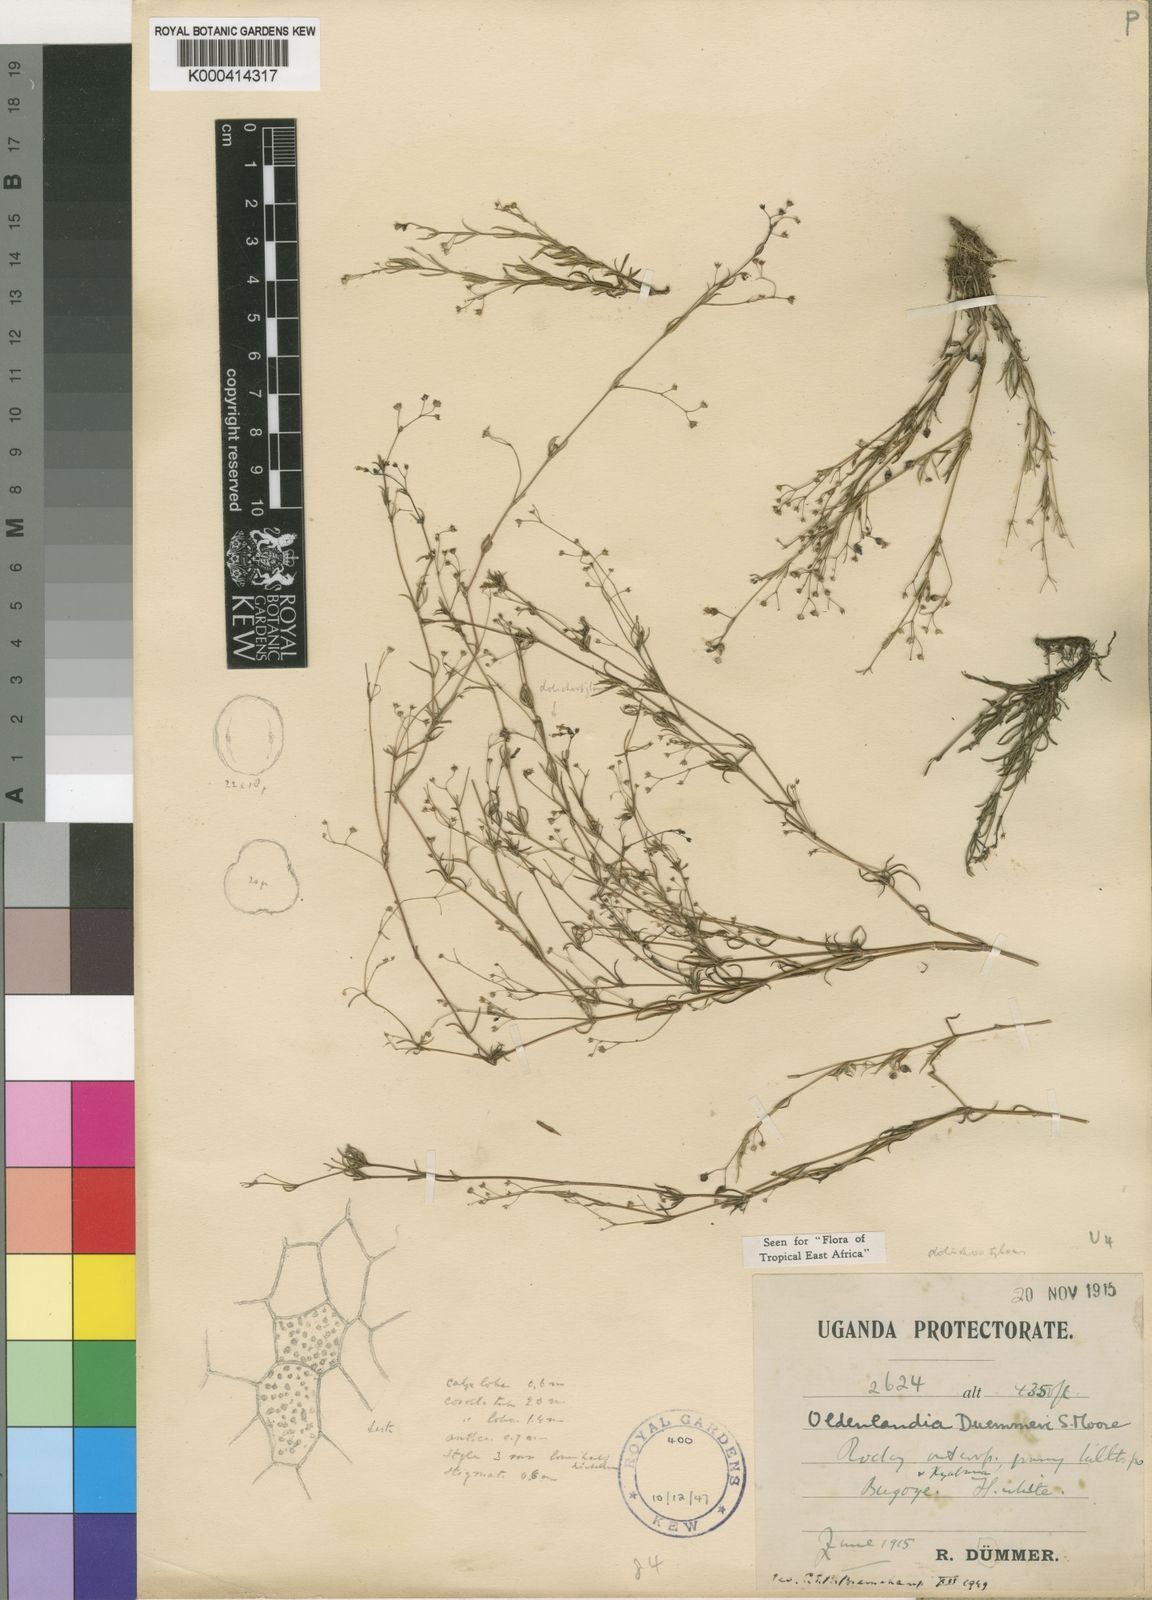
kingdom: Plantae
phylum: Tracheophyta
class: Magnoliopsida
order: Gentianales
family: Rubiaceae
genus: Oldenlandia
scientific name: Oldenlandia duemmeri
